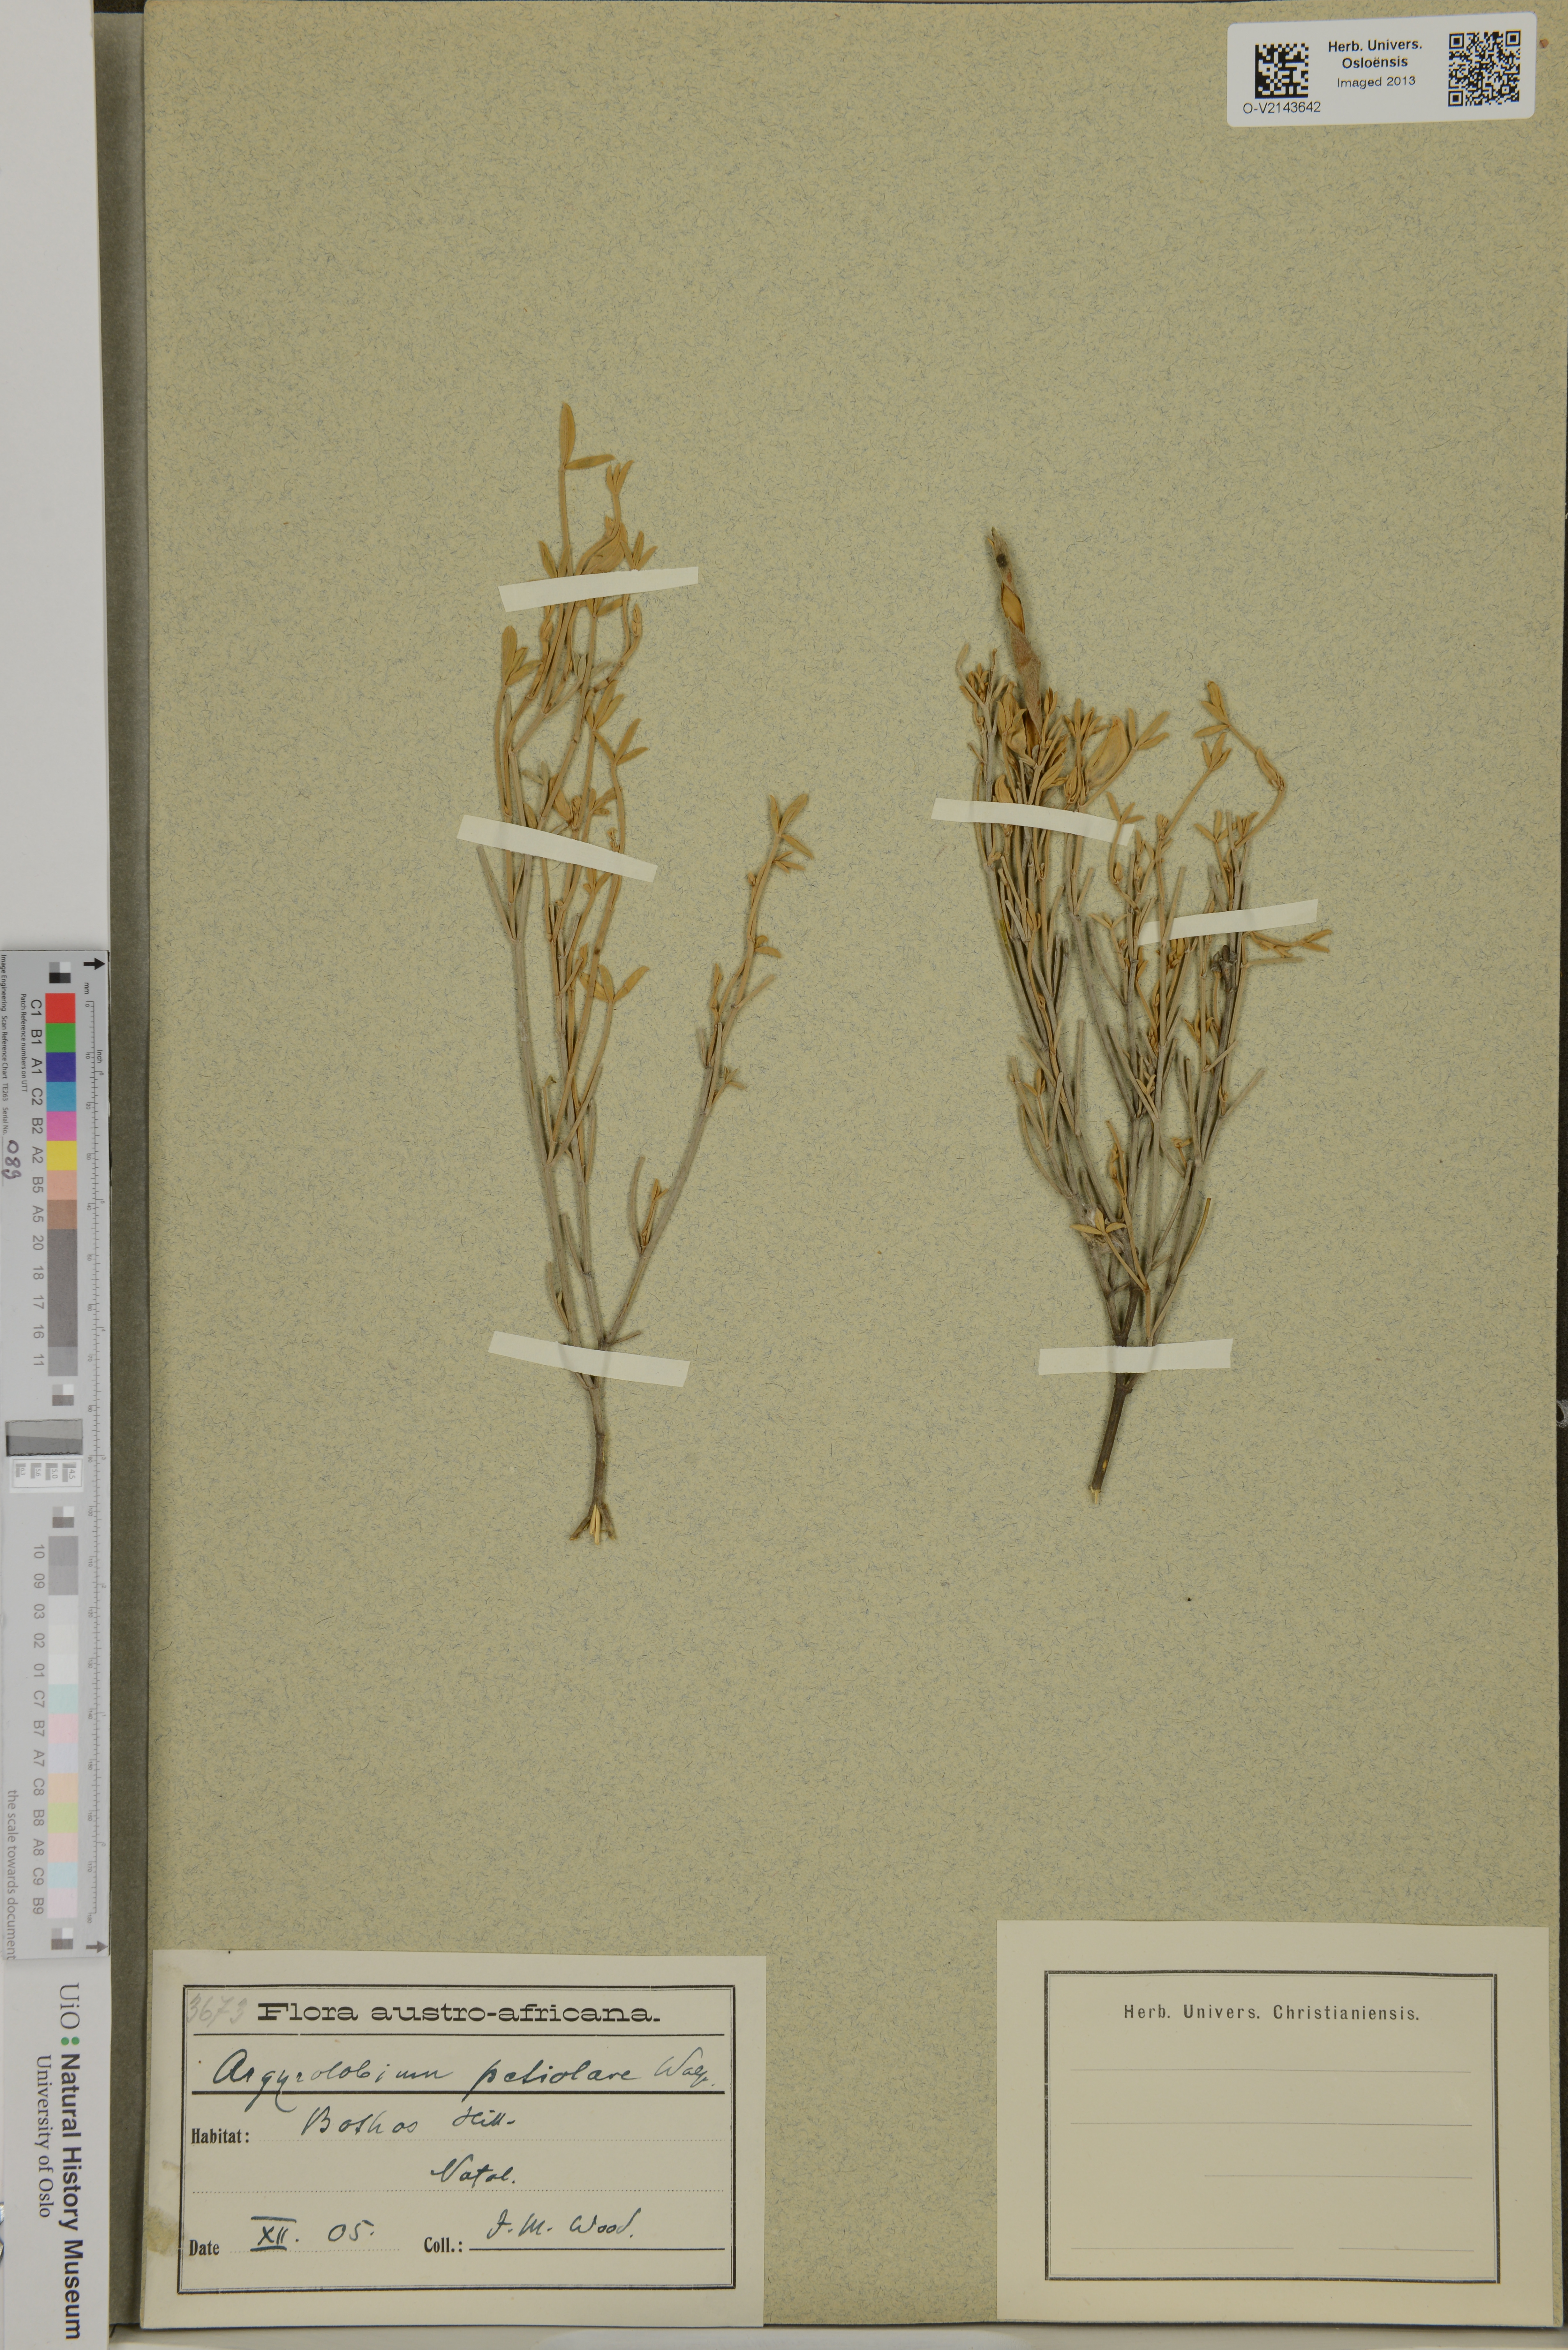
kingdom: Plantae
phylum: Tracheophyta
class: Magnoliopsida
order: Fabales
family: Fabaceae
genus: Argyrolobium
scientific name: Argyrolobium petiolare
